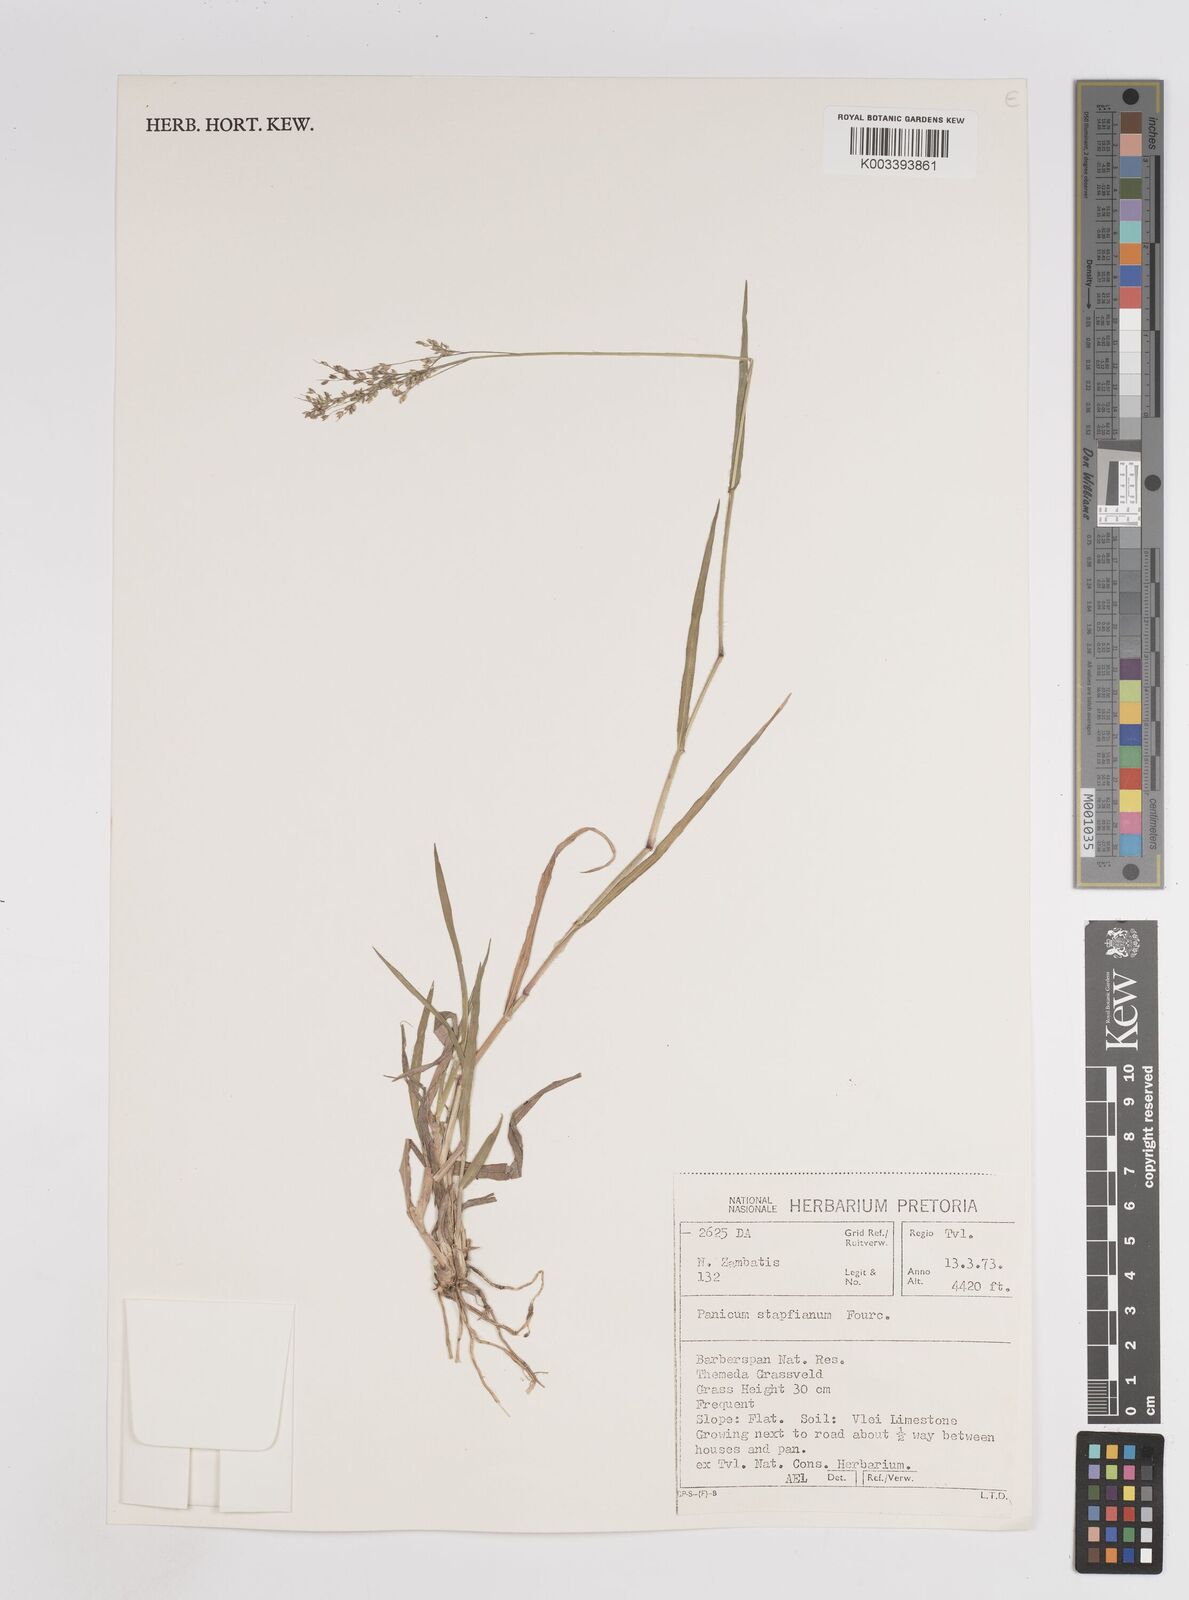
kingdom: Plantae
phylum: Tracheophyta
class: Liliopsida
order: Poales
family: Poaceae
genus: Panicum
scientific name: Panicum stapfianum
